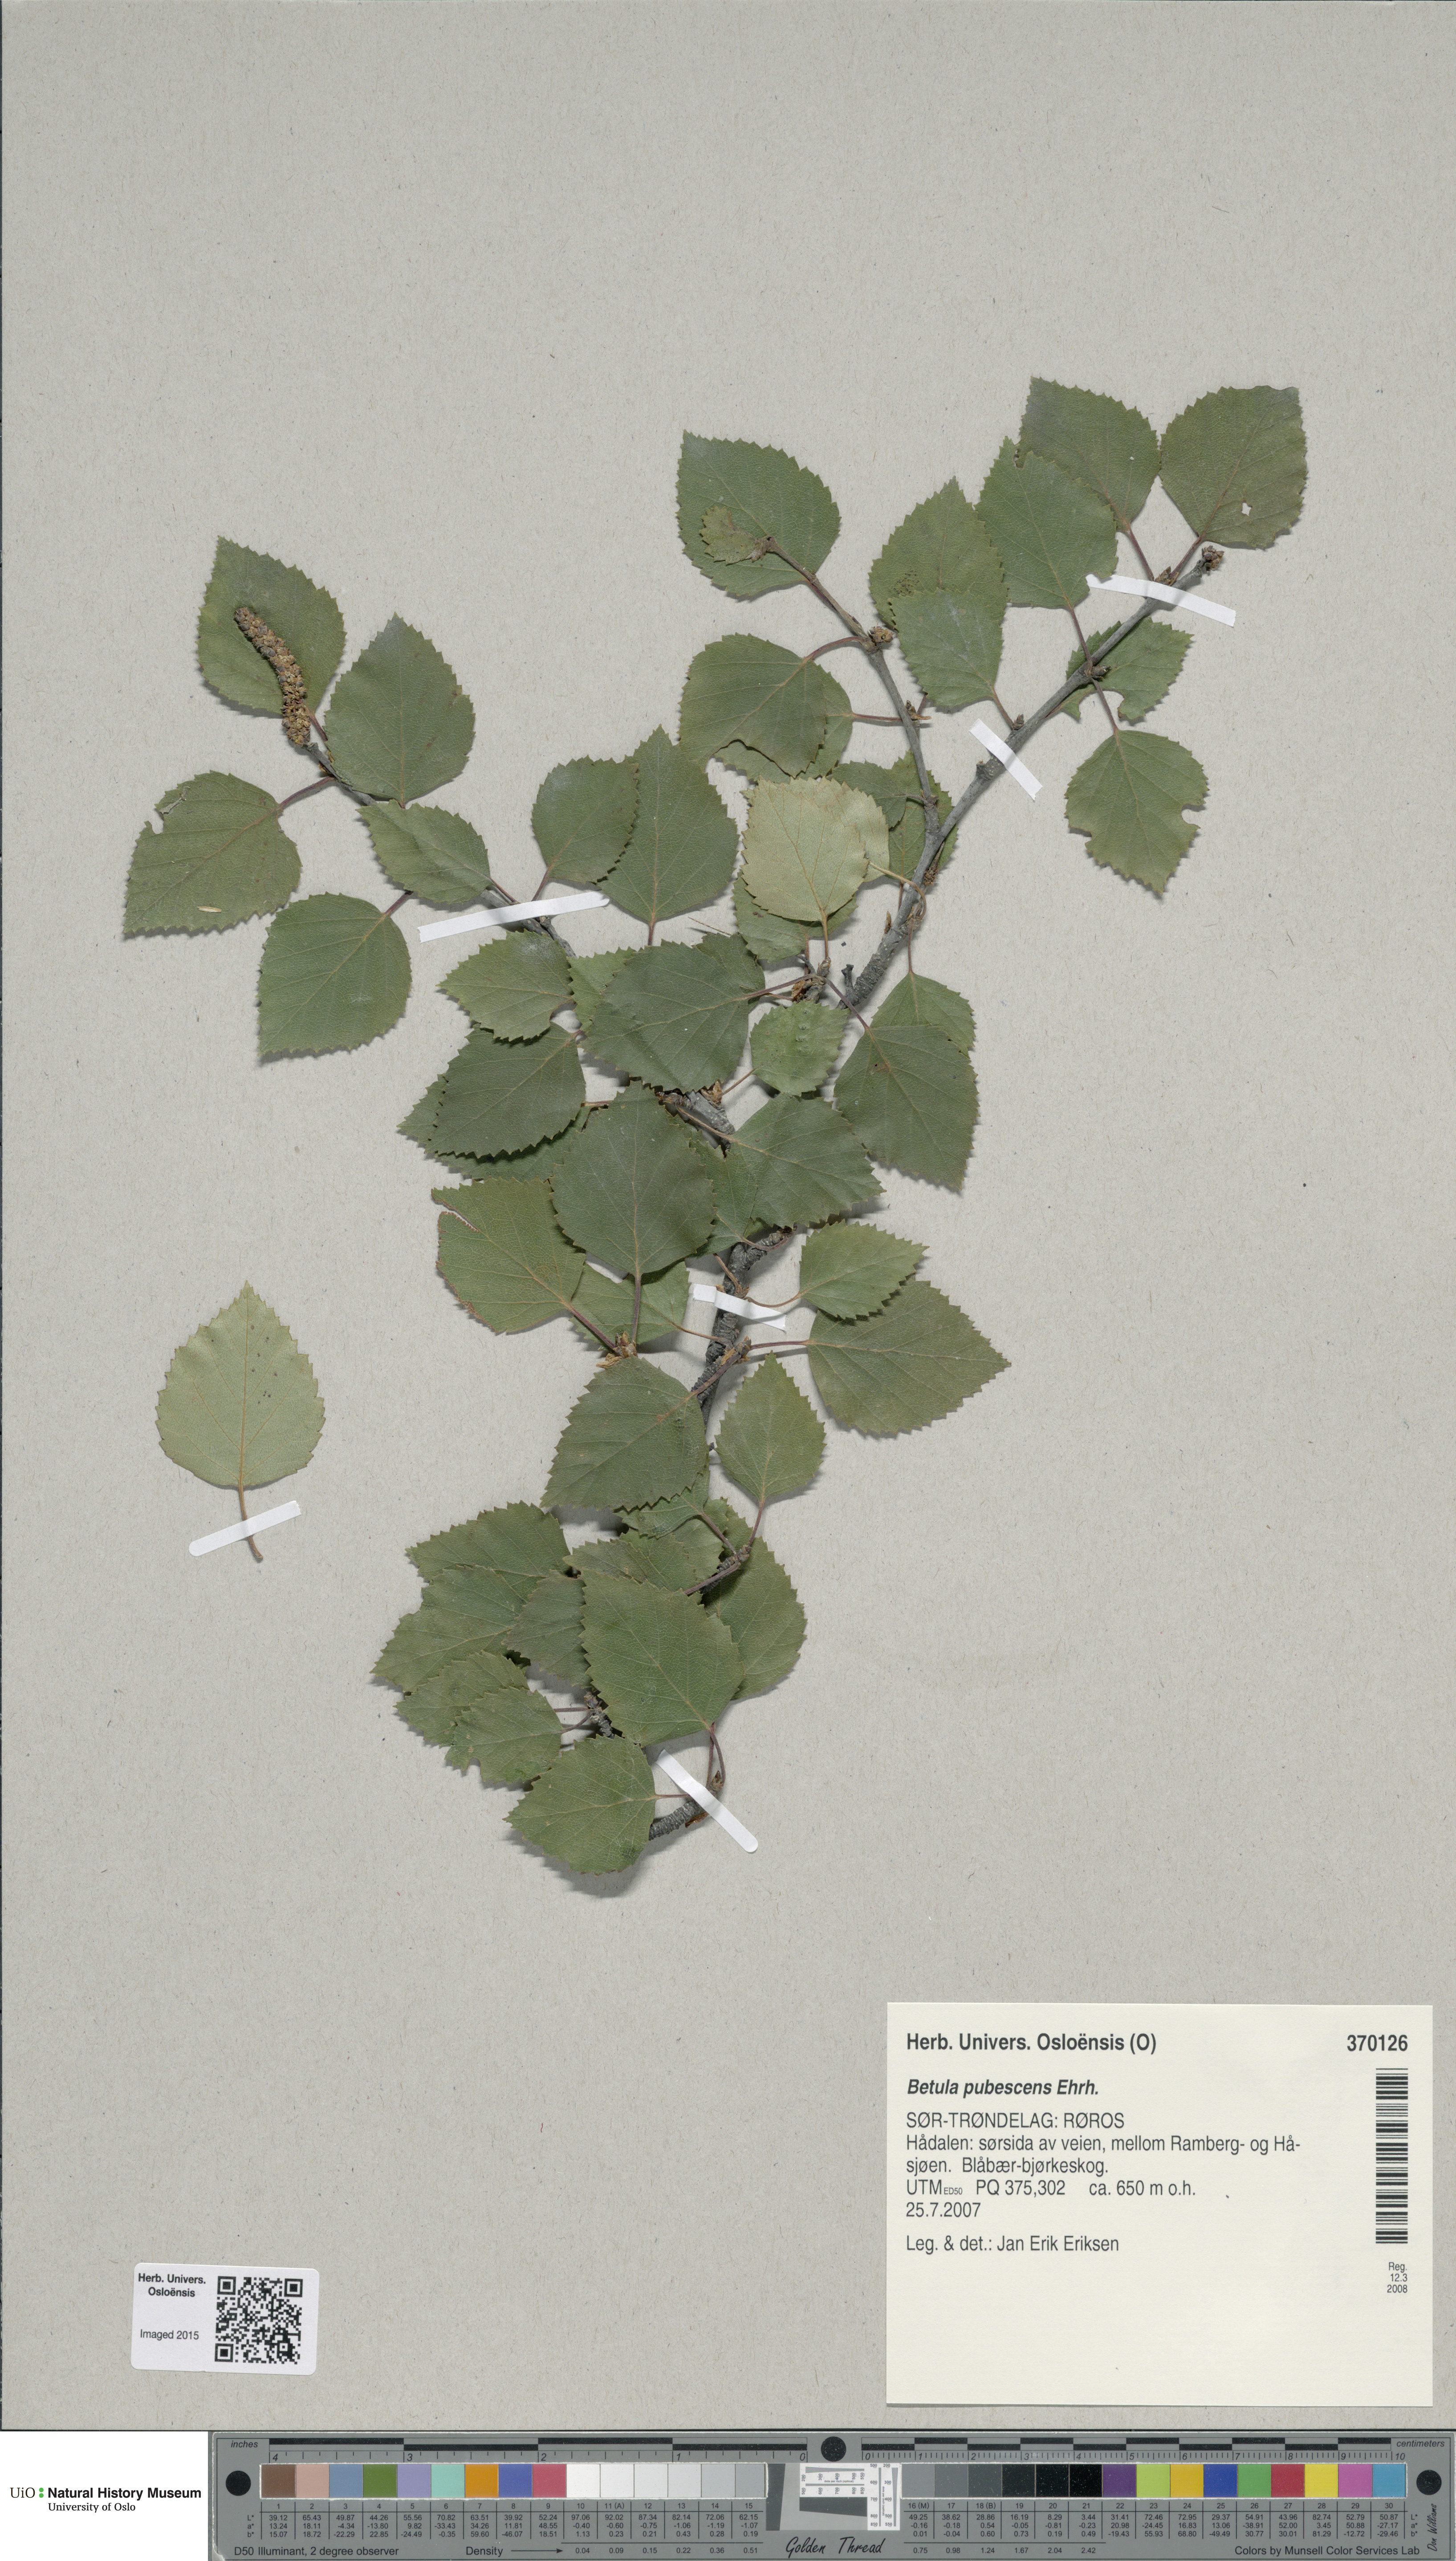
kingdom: Plantae
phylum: Tracheophyta
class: Magnoliopsida
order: Fagales
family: Betulaceae
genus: Betula
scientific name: Betula pubescens
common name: Downy birch
